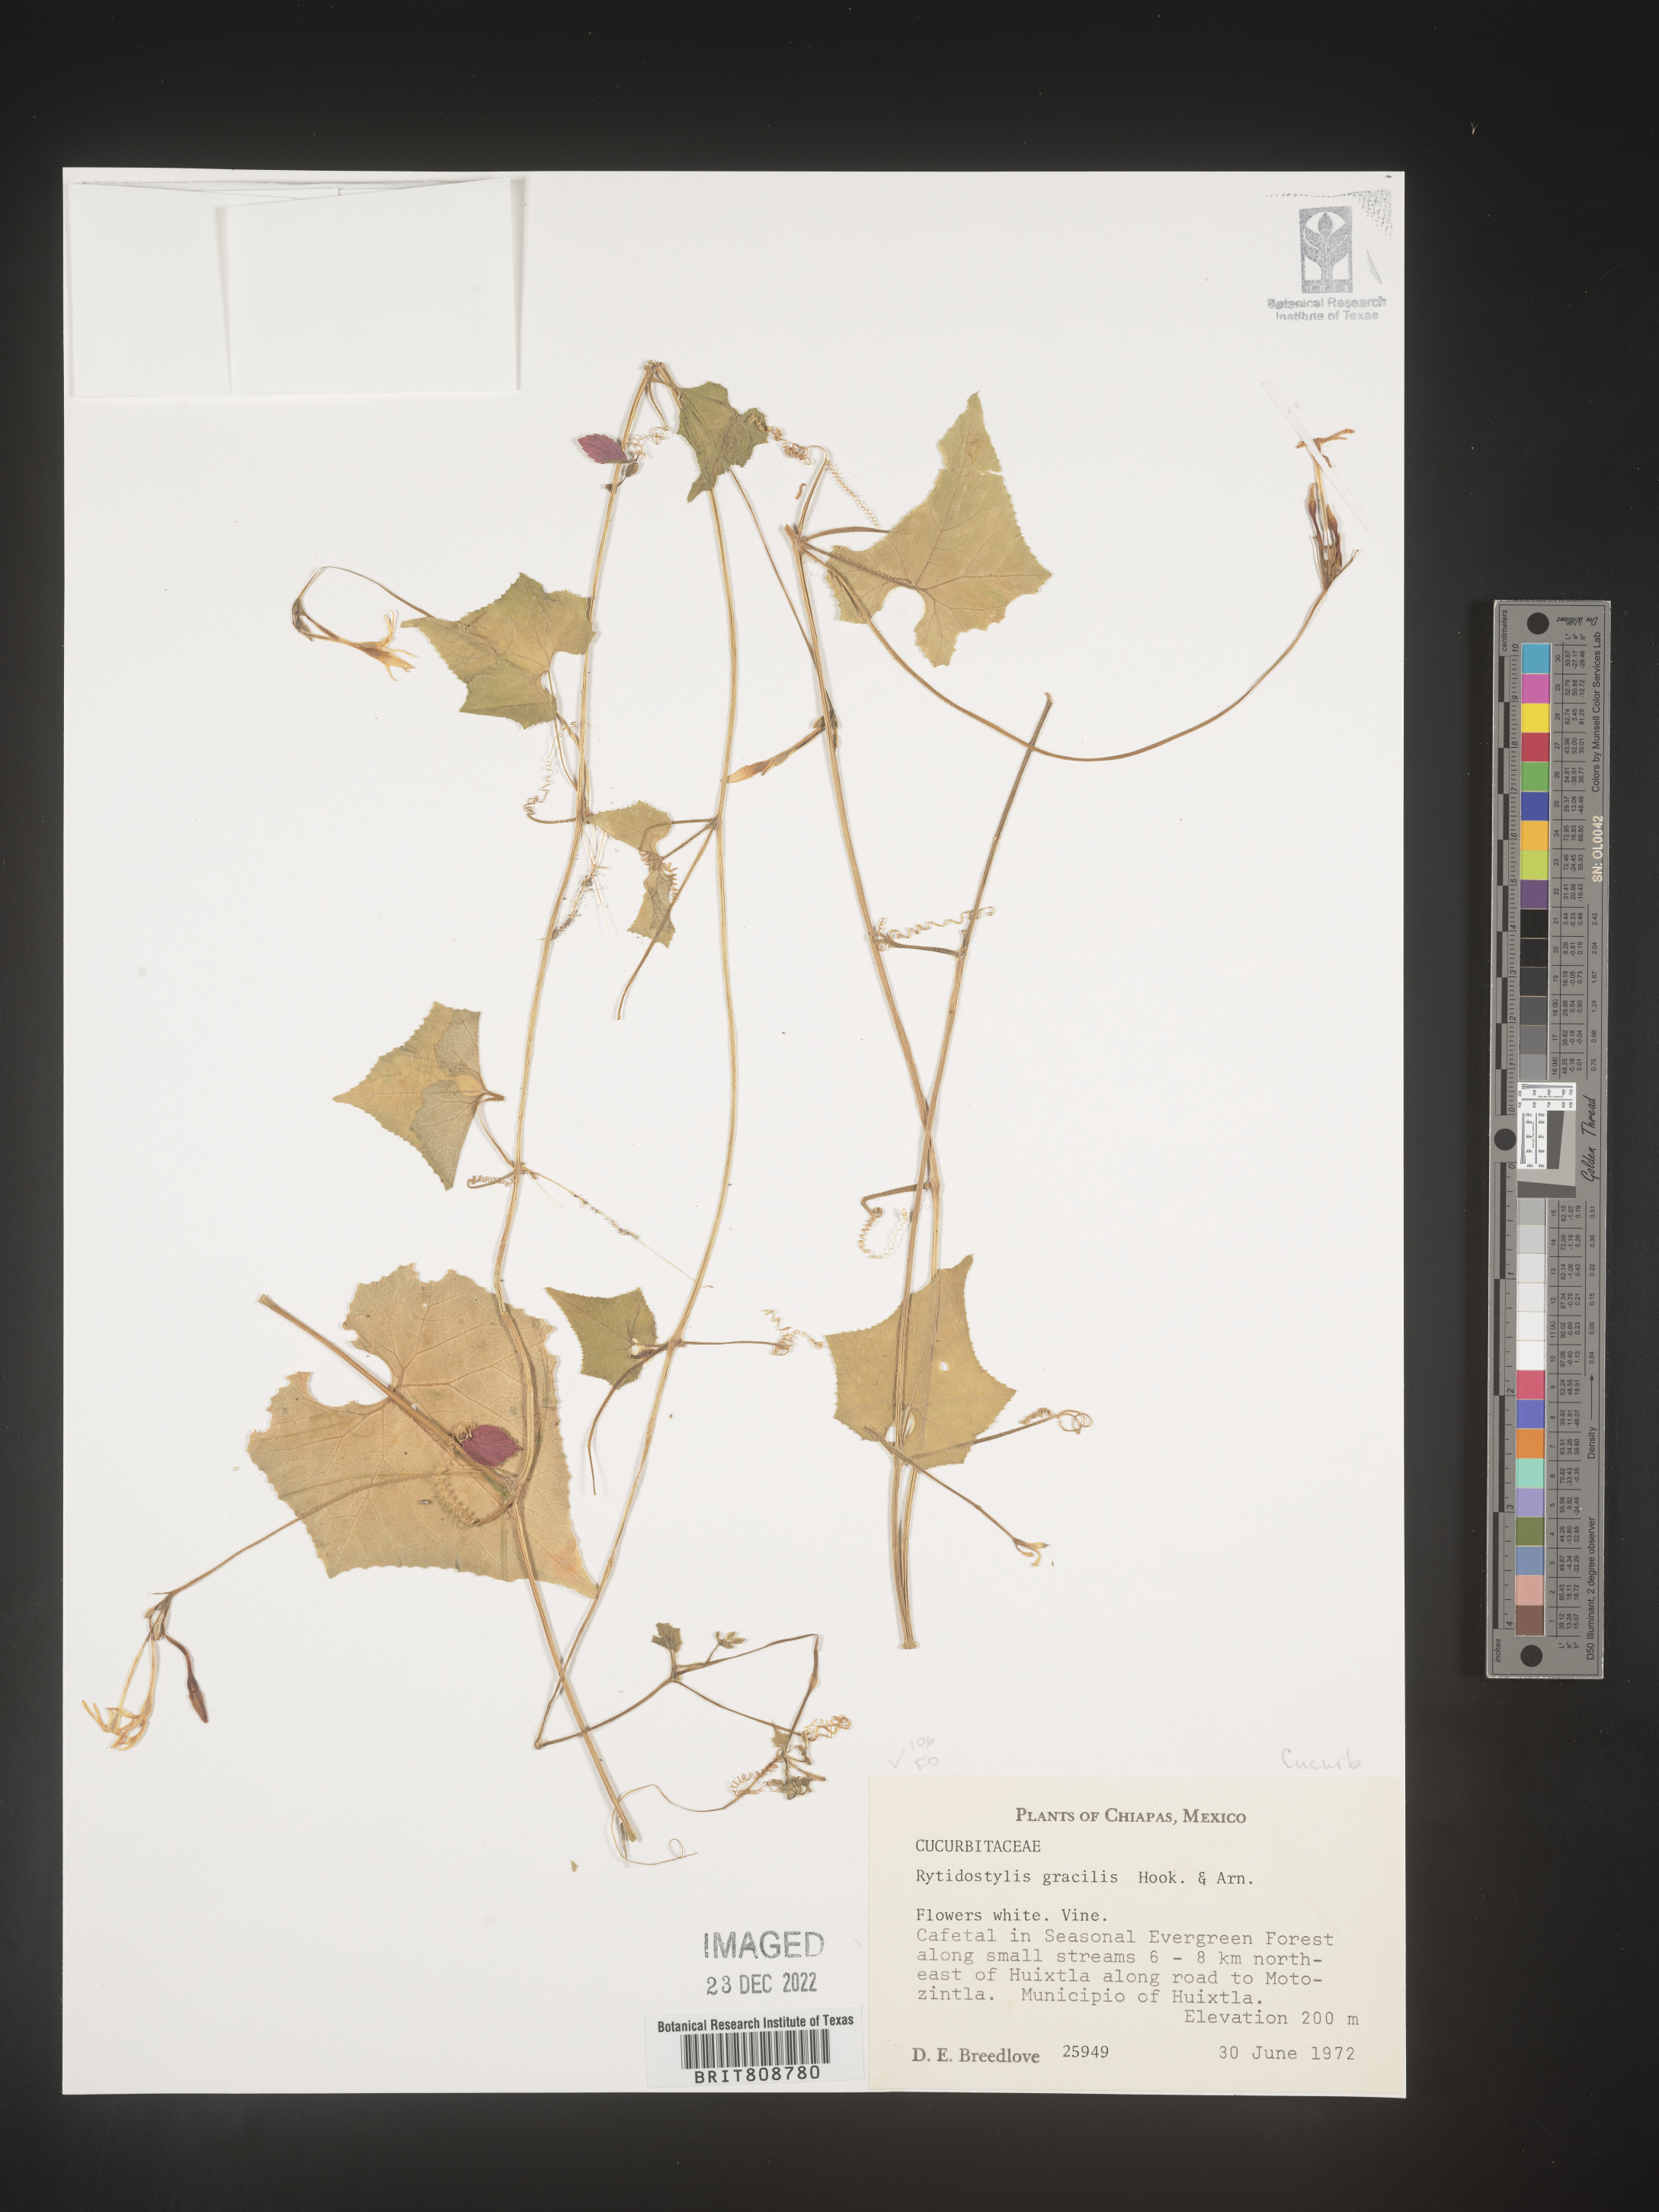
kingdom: Plantae
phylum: Tracheophyta
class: Magnoliopsida
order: Cucurbitales
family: Cucurbitaceae
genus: Cyclanthera
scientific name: Cyclanthera
